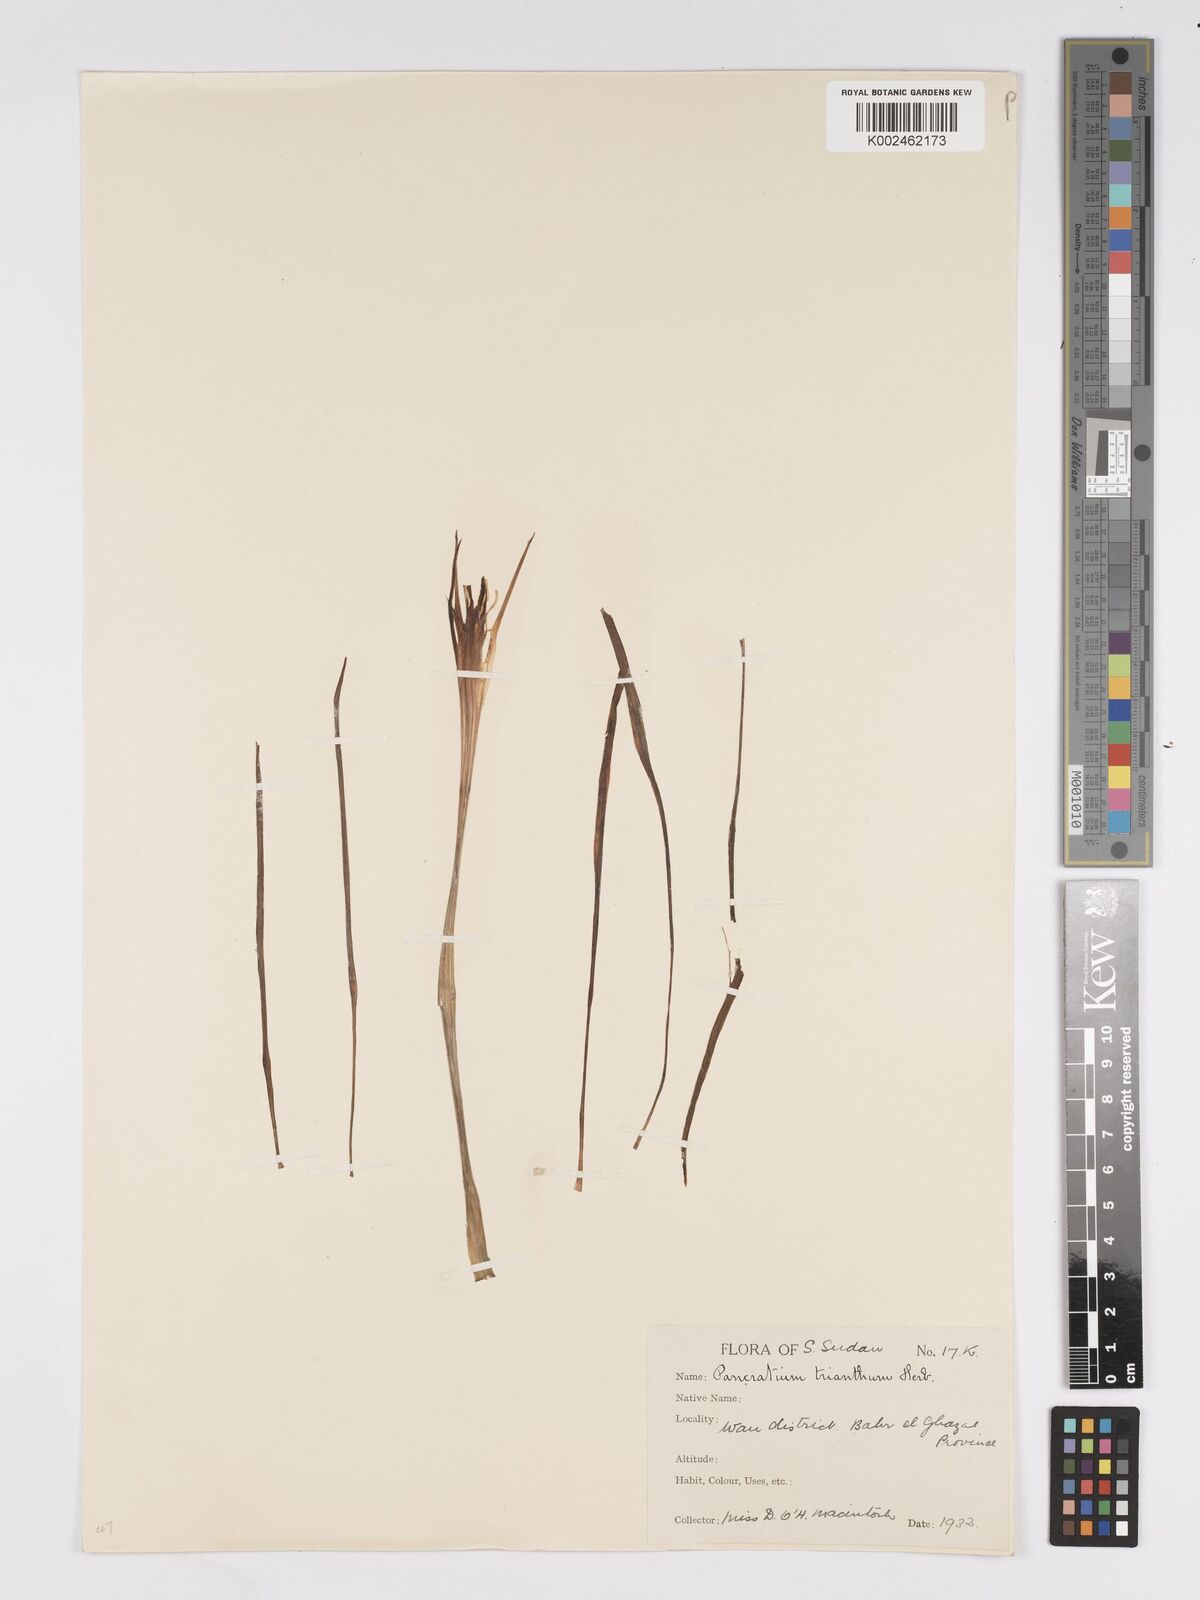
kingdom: Plantae
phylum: Tracheophyta
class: Liliopsida
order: Asparagales
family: Amaryllidaceae
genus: Pancratium
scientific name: Pancratium trianthum
